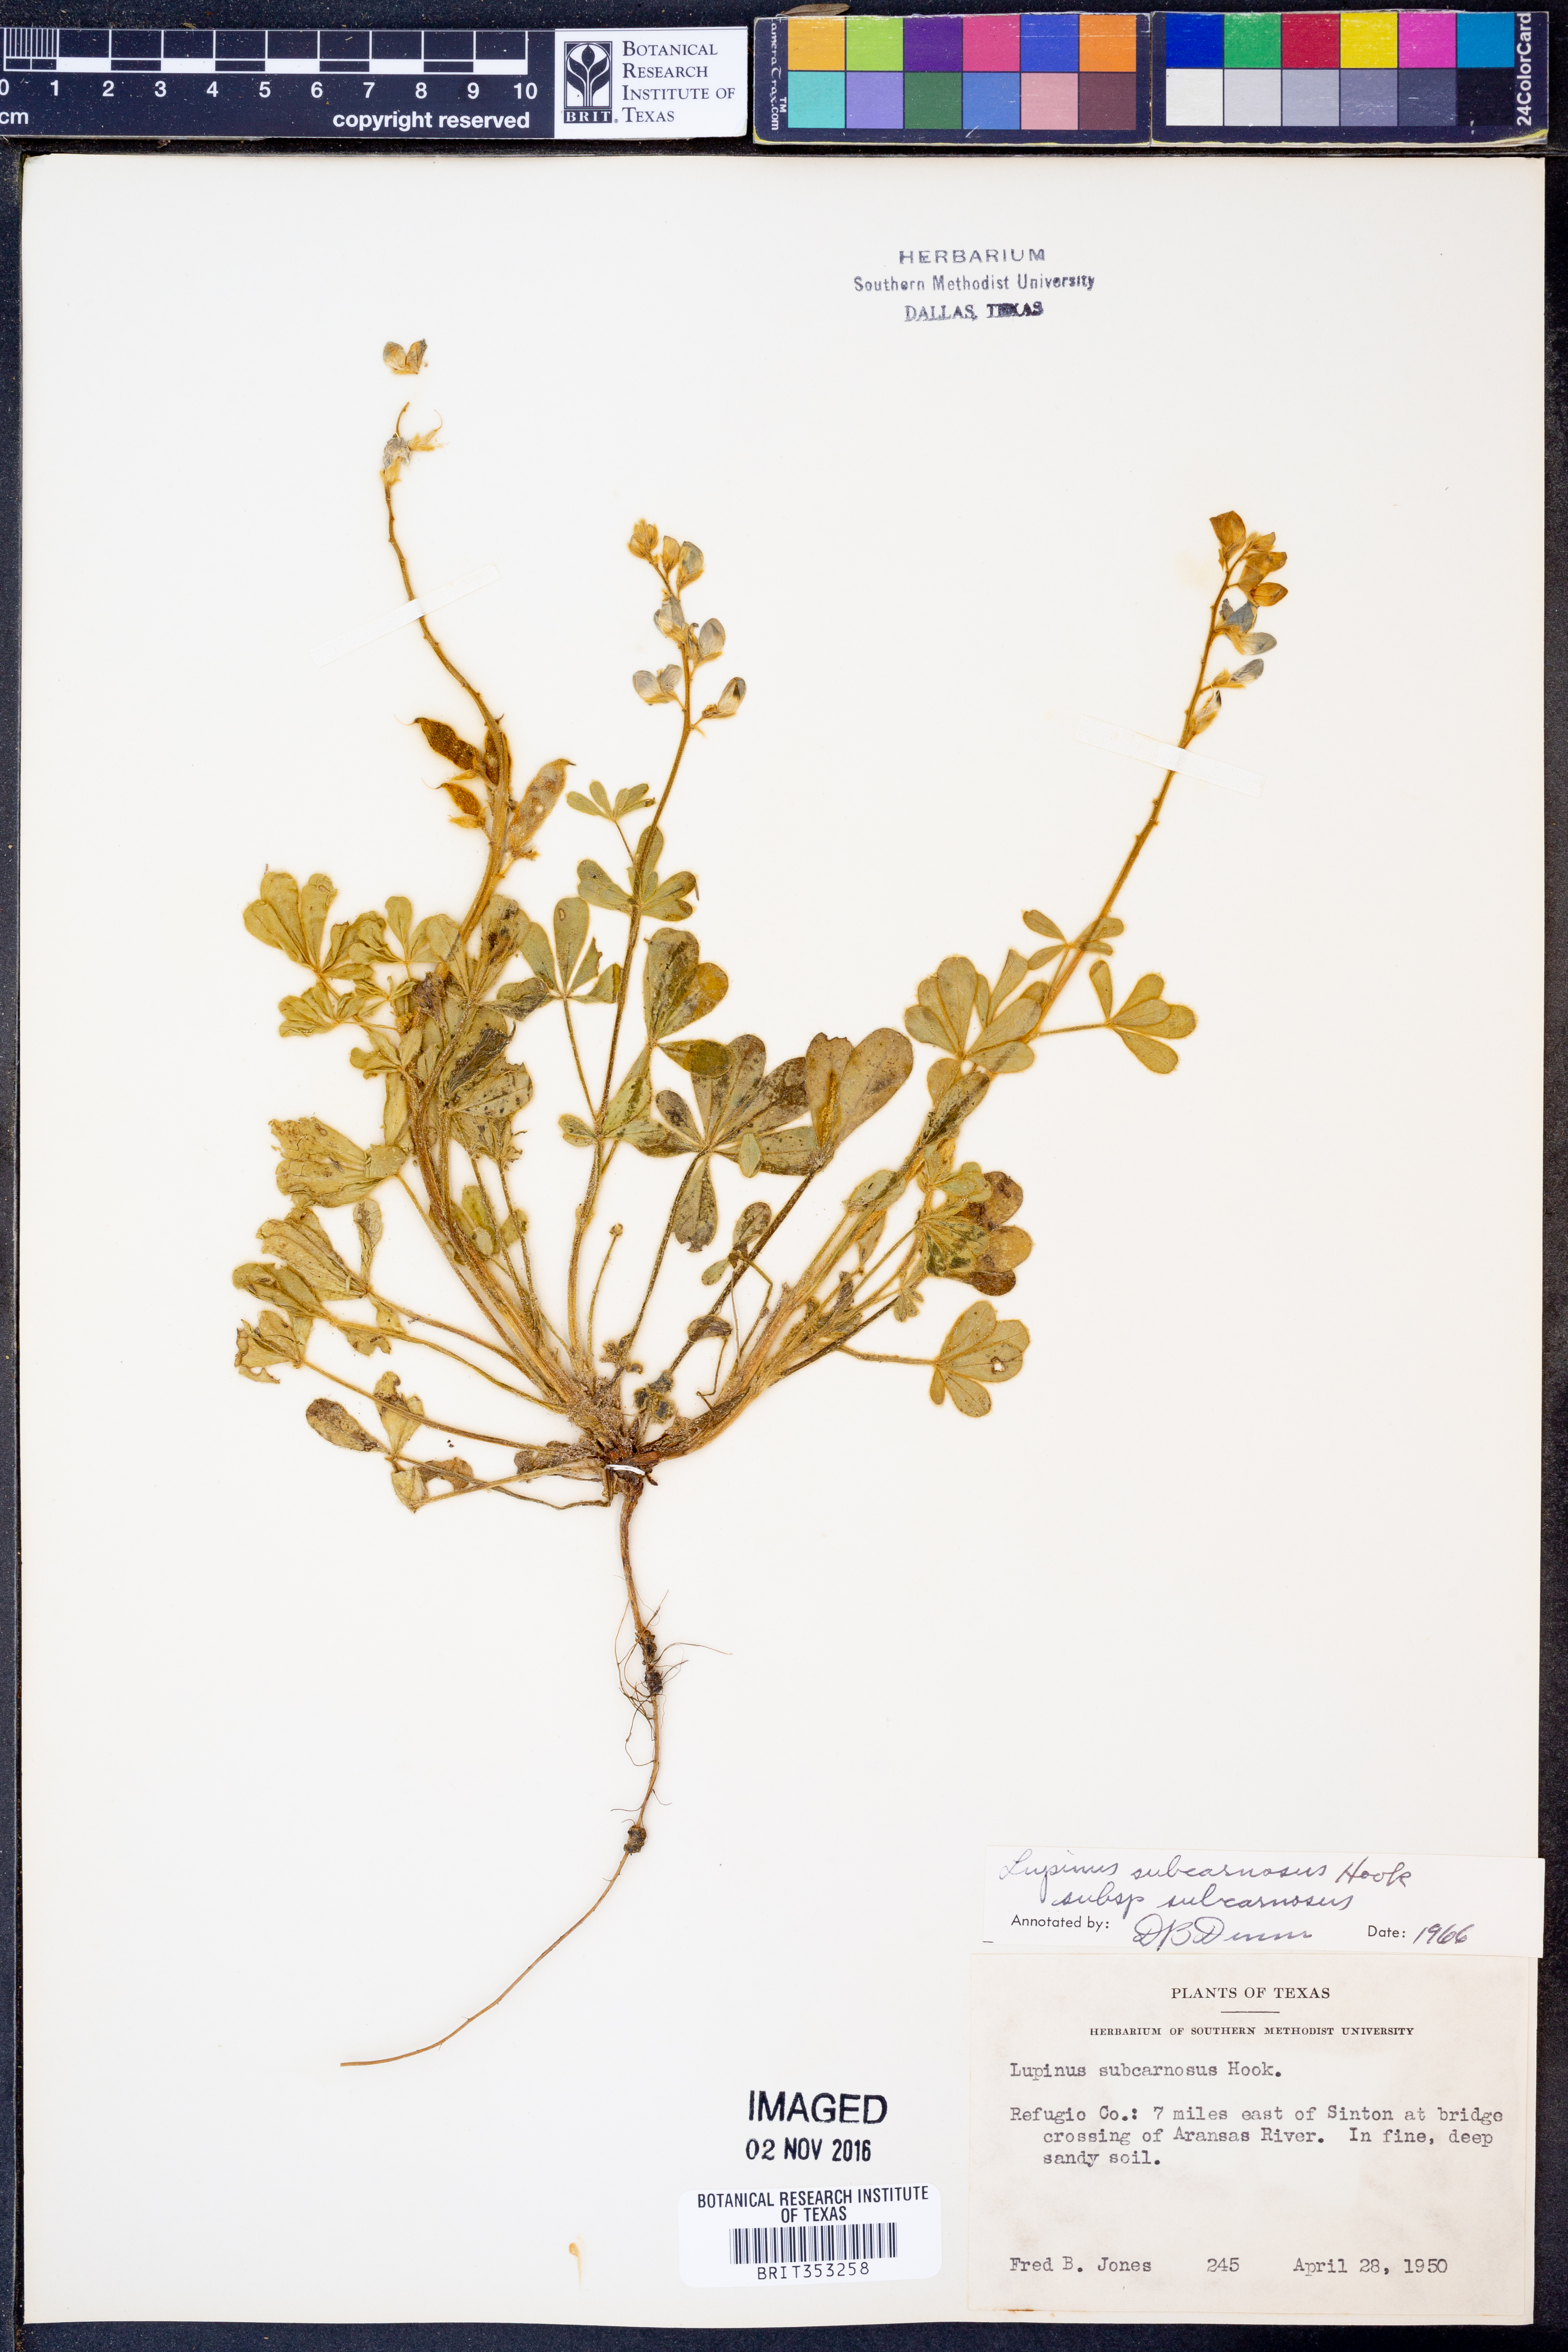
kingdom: Plantae
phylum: Tracheophyta
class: Magnoliopsida
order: Fabales
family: Fabaceae
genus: Lupinus
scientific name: Lupinus subcarnosus
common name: Texas bluebonnet
